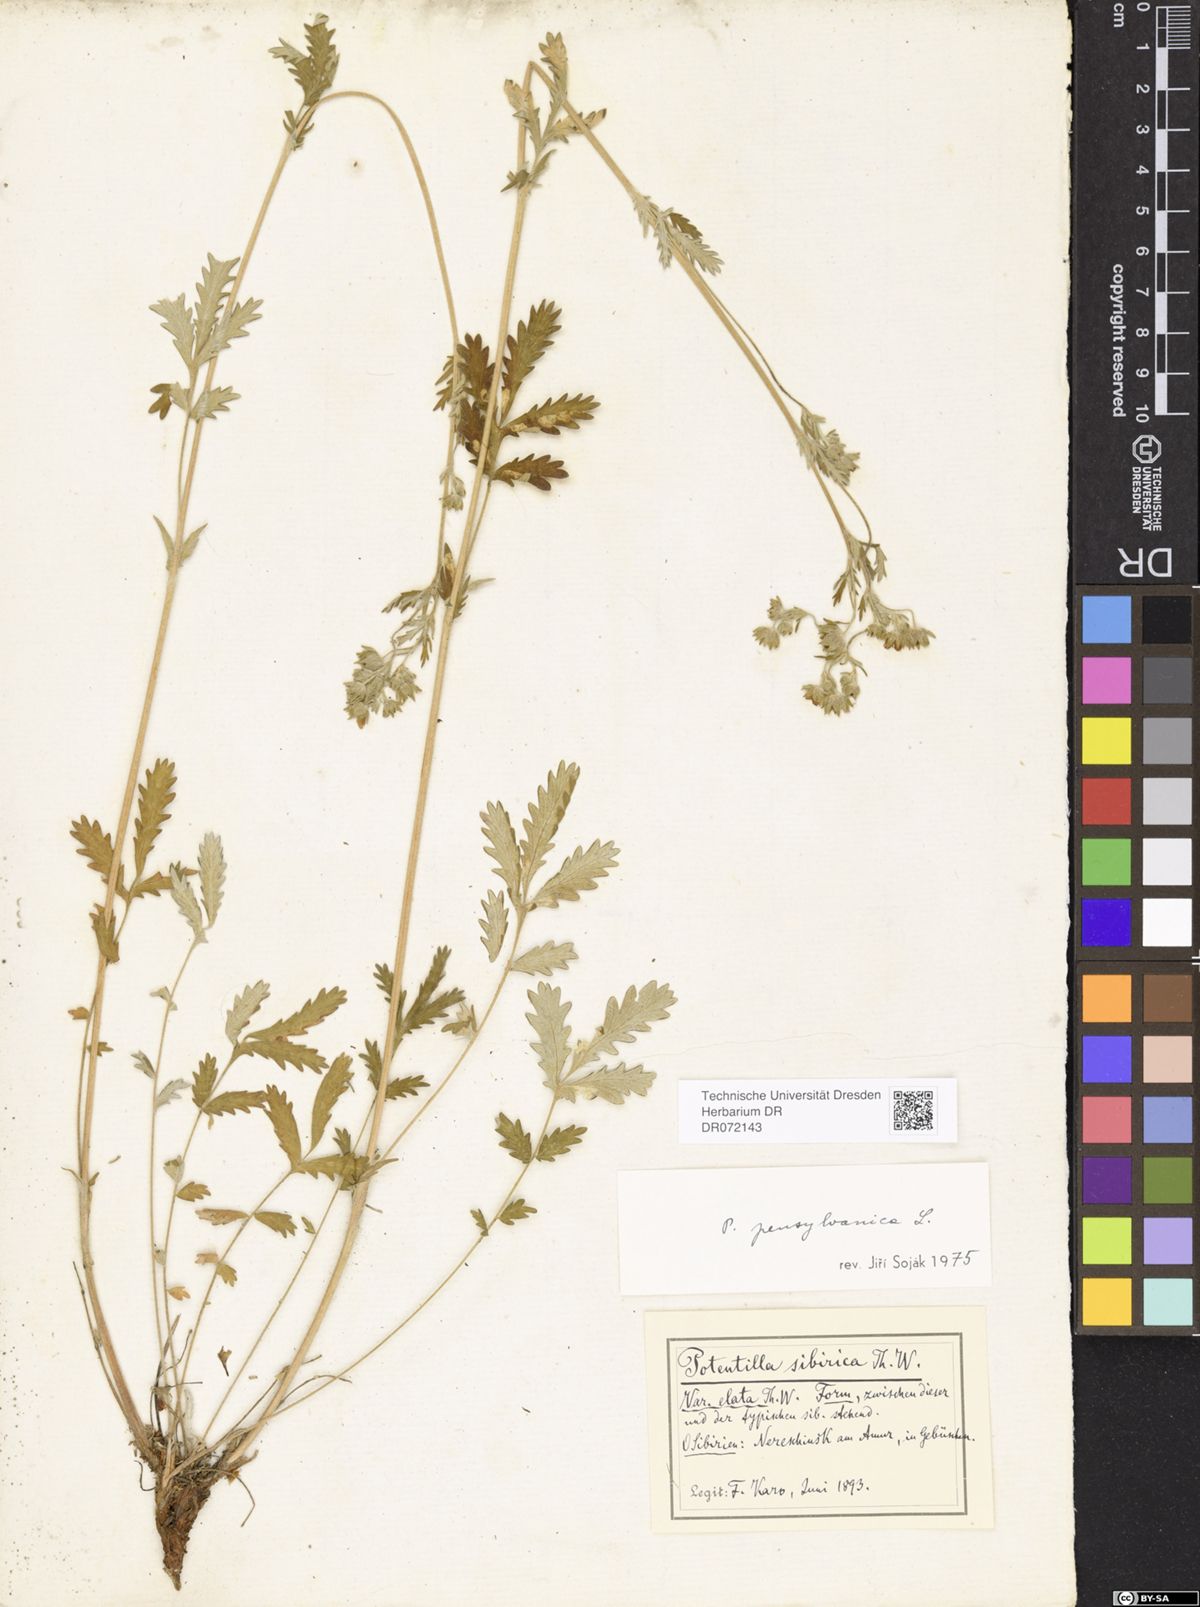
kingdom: Plantae
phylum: Tracheophyta
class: Magnoliopsida
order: Rosales
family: Rosaceae
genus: Potentilla
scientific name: Potentilla pensylvanica
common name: Pennsylvania cinquefoil
